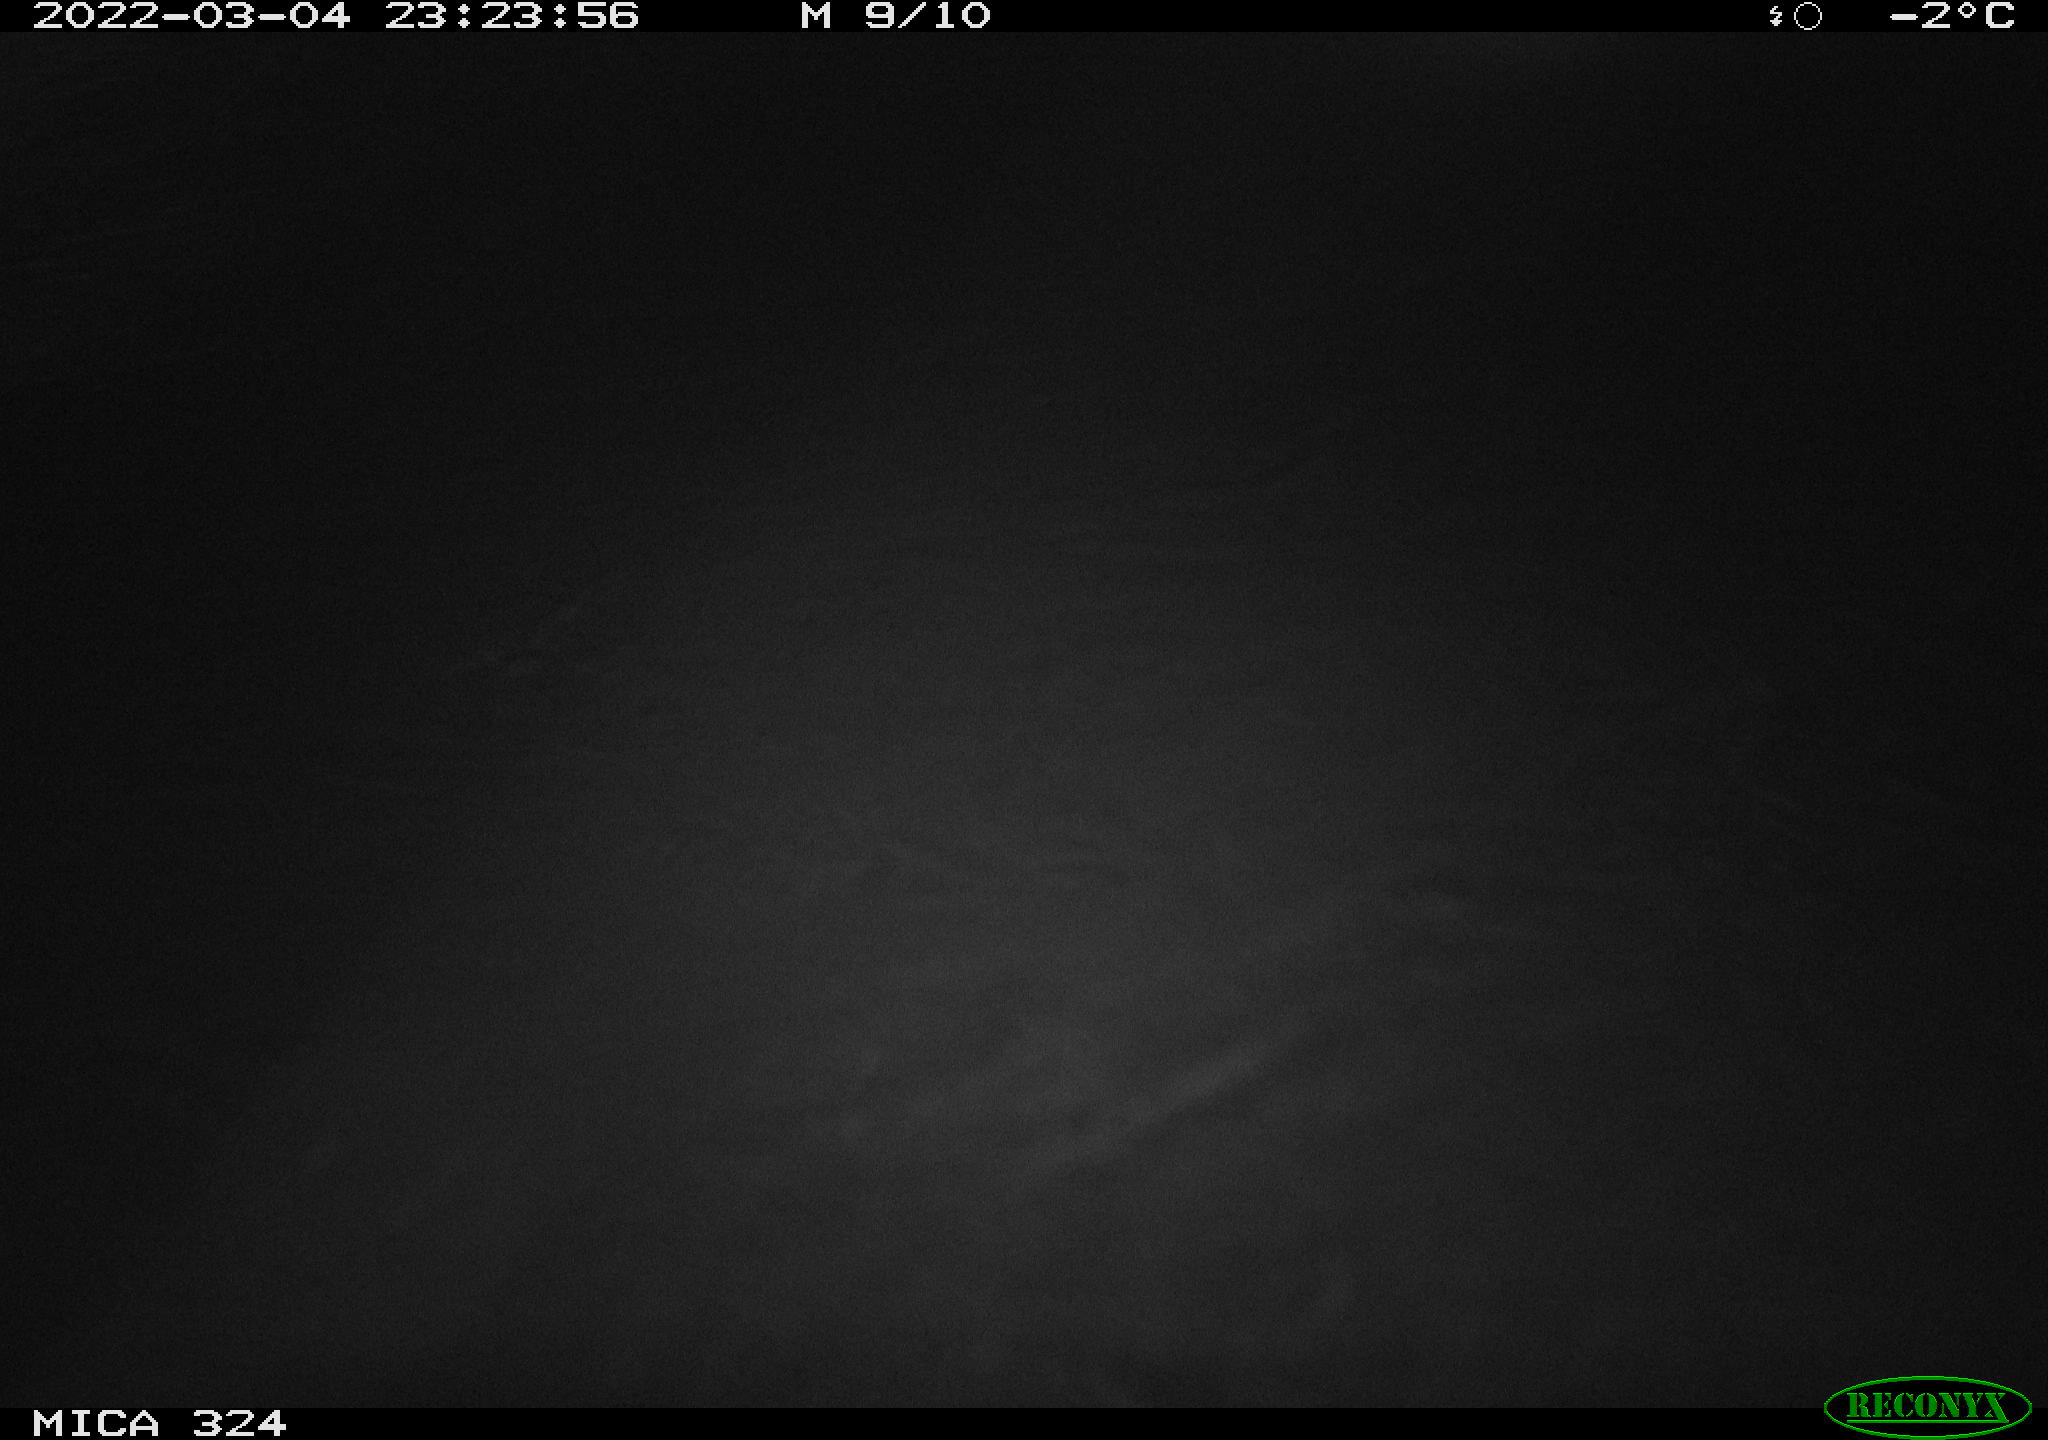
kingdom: Animalia
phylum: Chordata
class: Mammalia
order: Rodentia
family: Muridae
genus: Rattus
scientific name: Rattus norvegicus
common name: Brown rat
